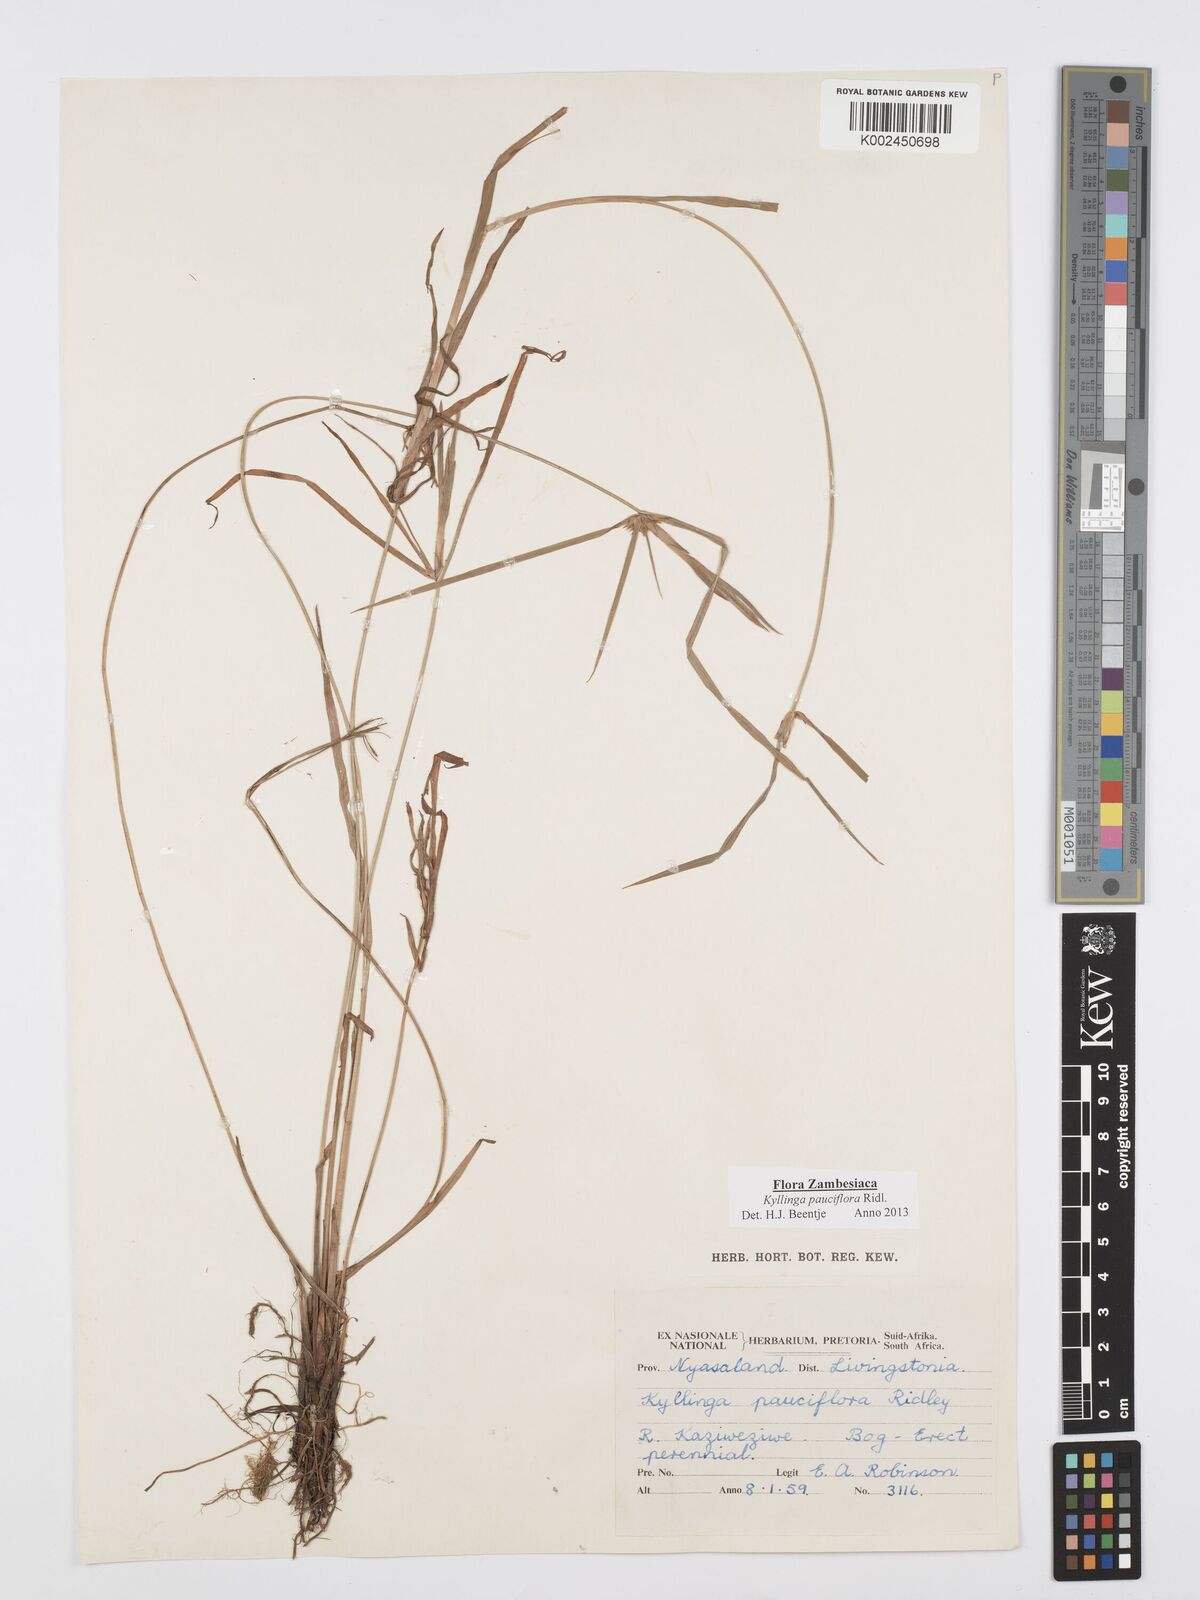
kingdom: Plantae
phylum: Tracheophyta
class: Liliopsida
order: Poales
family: Cyperaceae
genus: Cyperus
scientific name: Cyperus
